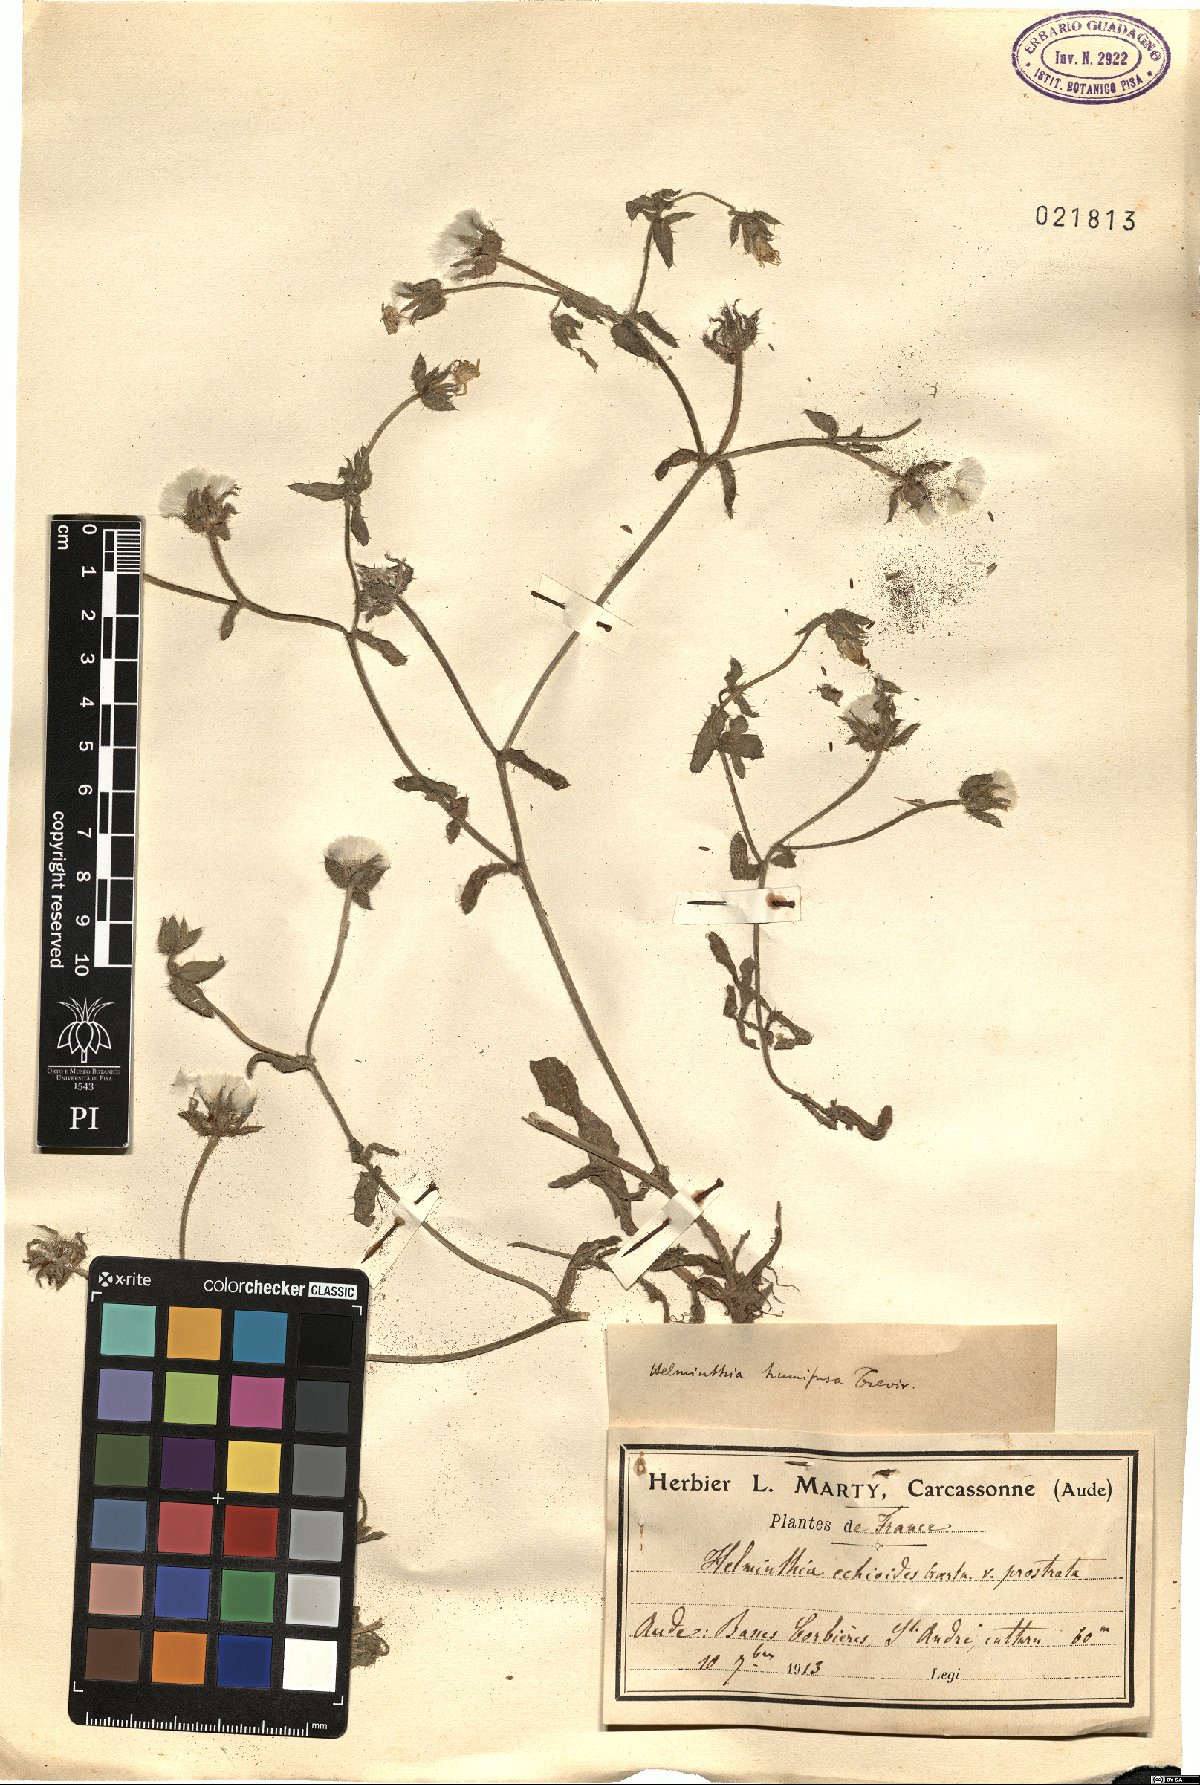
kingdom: Plantae
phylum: Tracheophyta
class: Magnoliopsida
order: Asterales
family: Asteraceae
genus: Helminthotheca
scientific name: Helminthotheca echioides
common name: Ox-tongue
